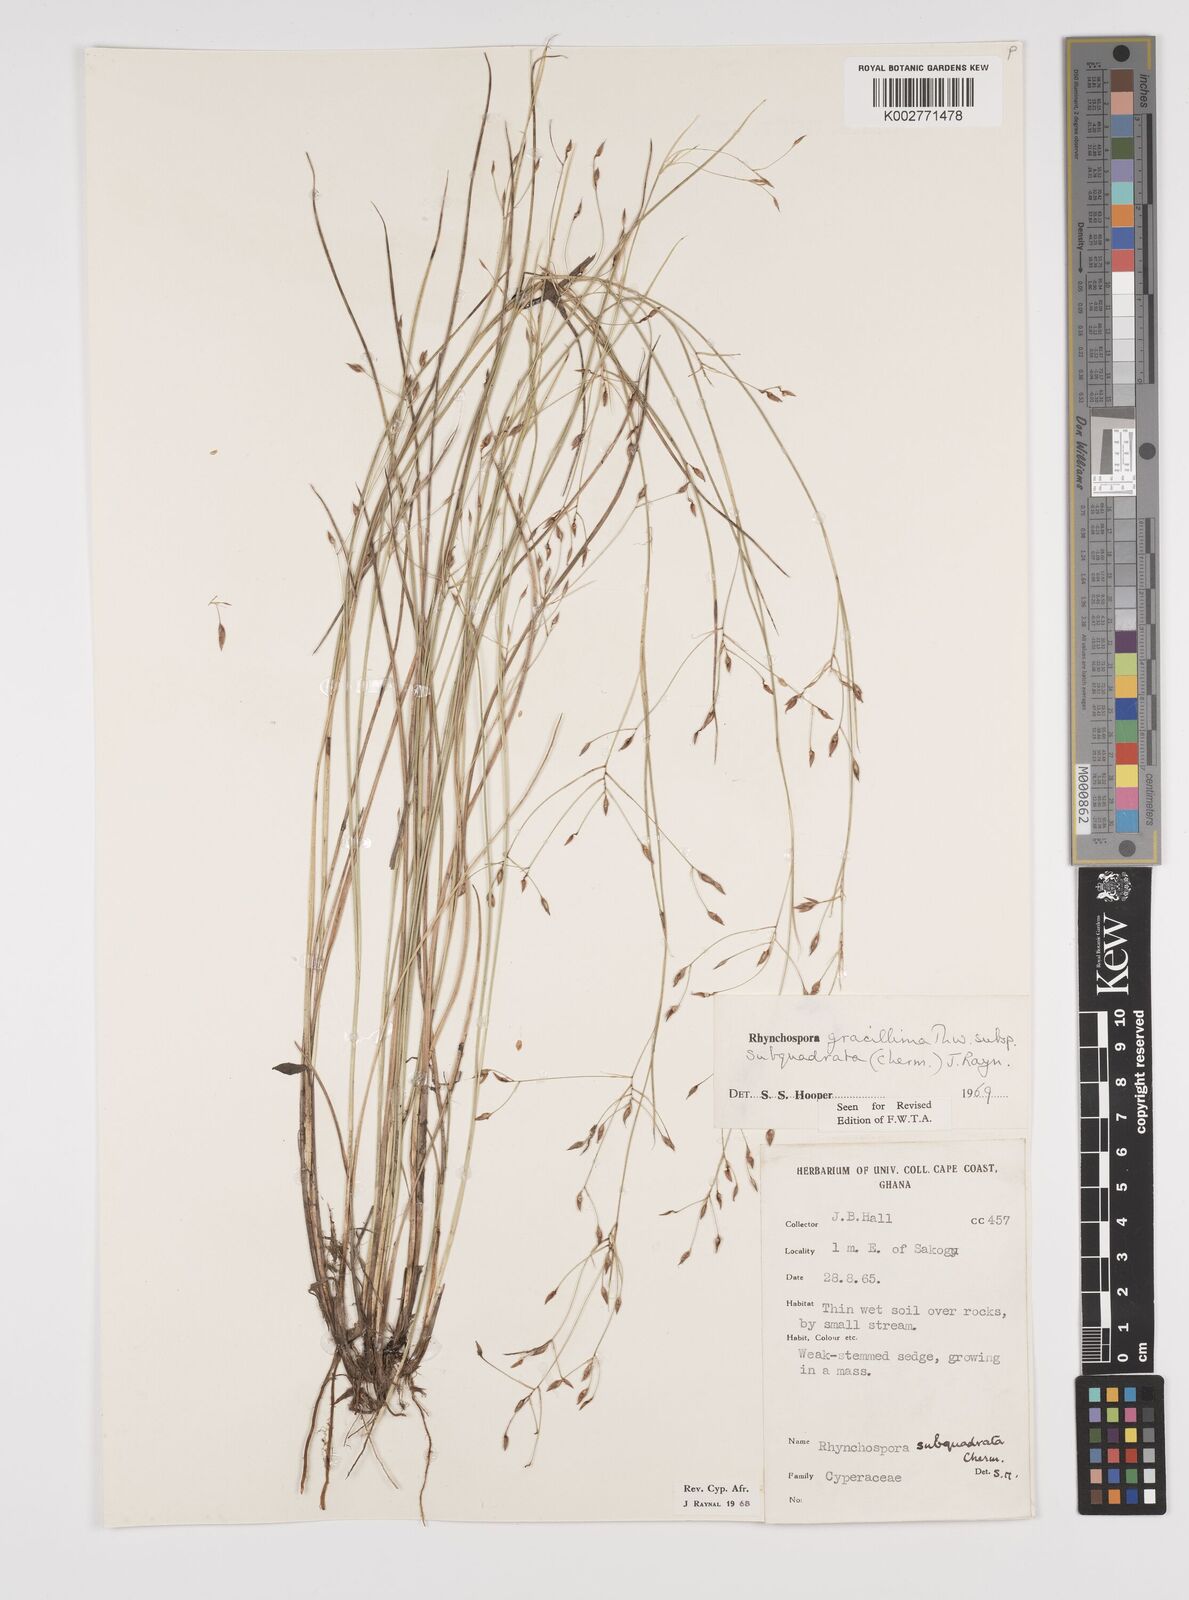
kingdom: Plantae
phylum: Tracheophyta
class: Liliopsida
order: Poales
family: Cyperaceae
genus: Rhynchospora
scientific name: Rhynchospora gracillima
